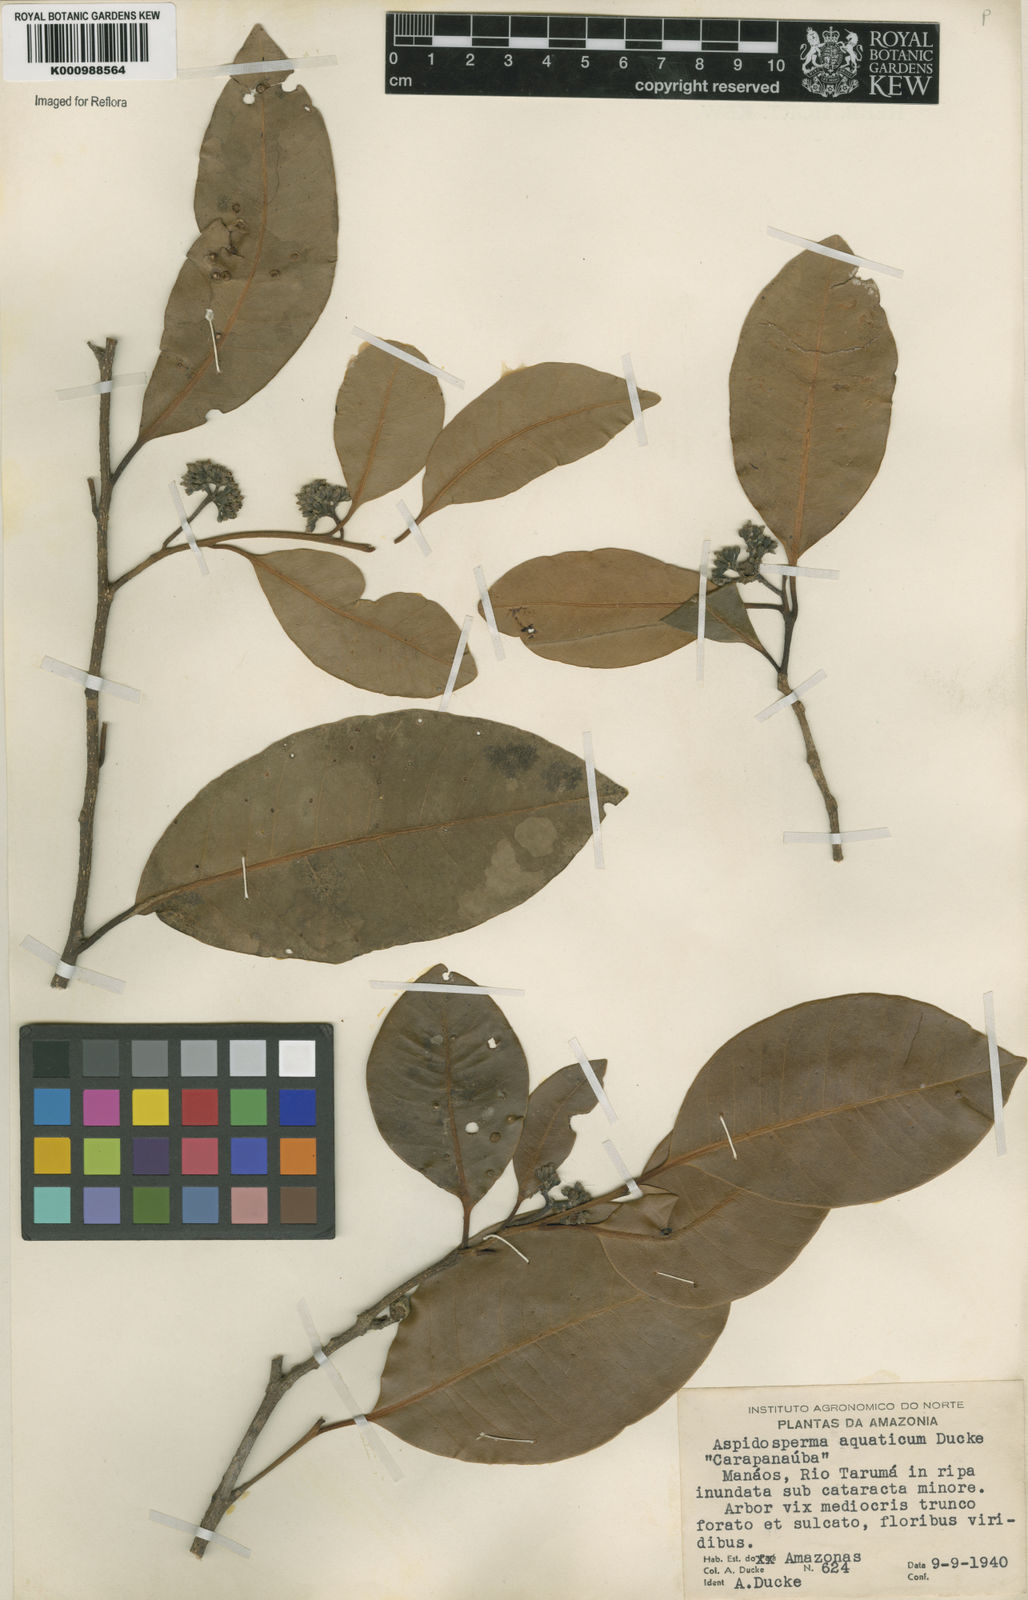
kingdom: Plantae
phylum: Tracheophyta
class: Magnoliopsida
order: Gentianales
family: Apocynaceae
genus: Aspidosperma
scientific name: Aspidosperma
